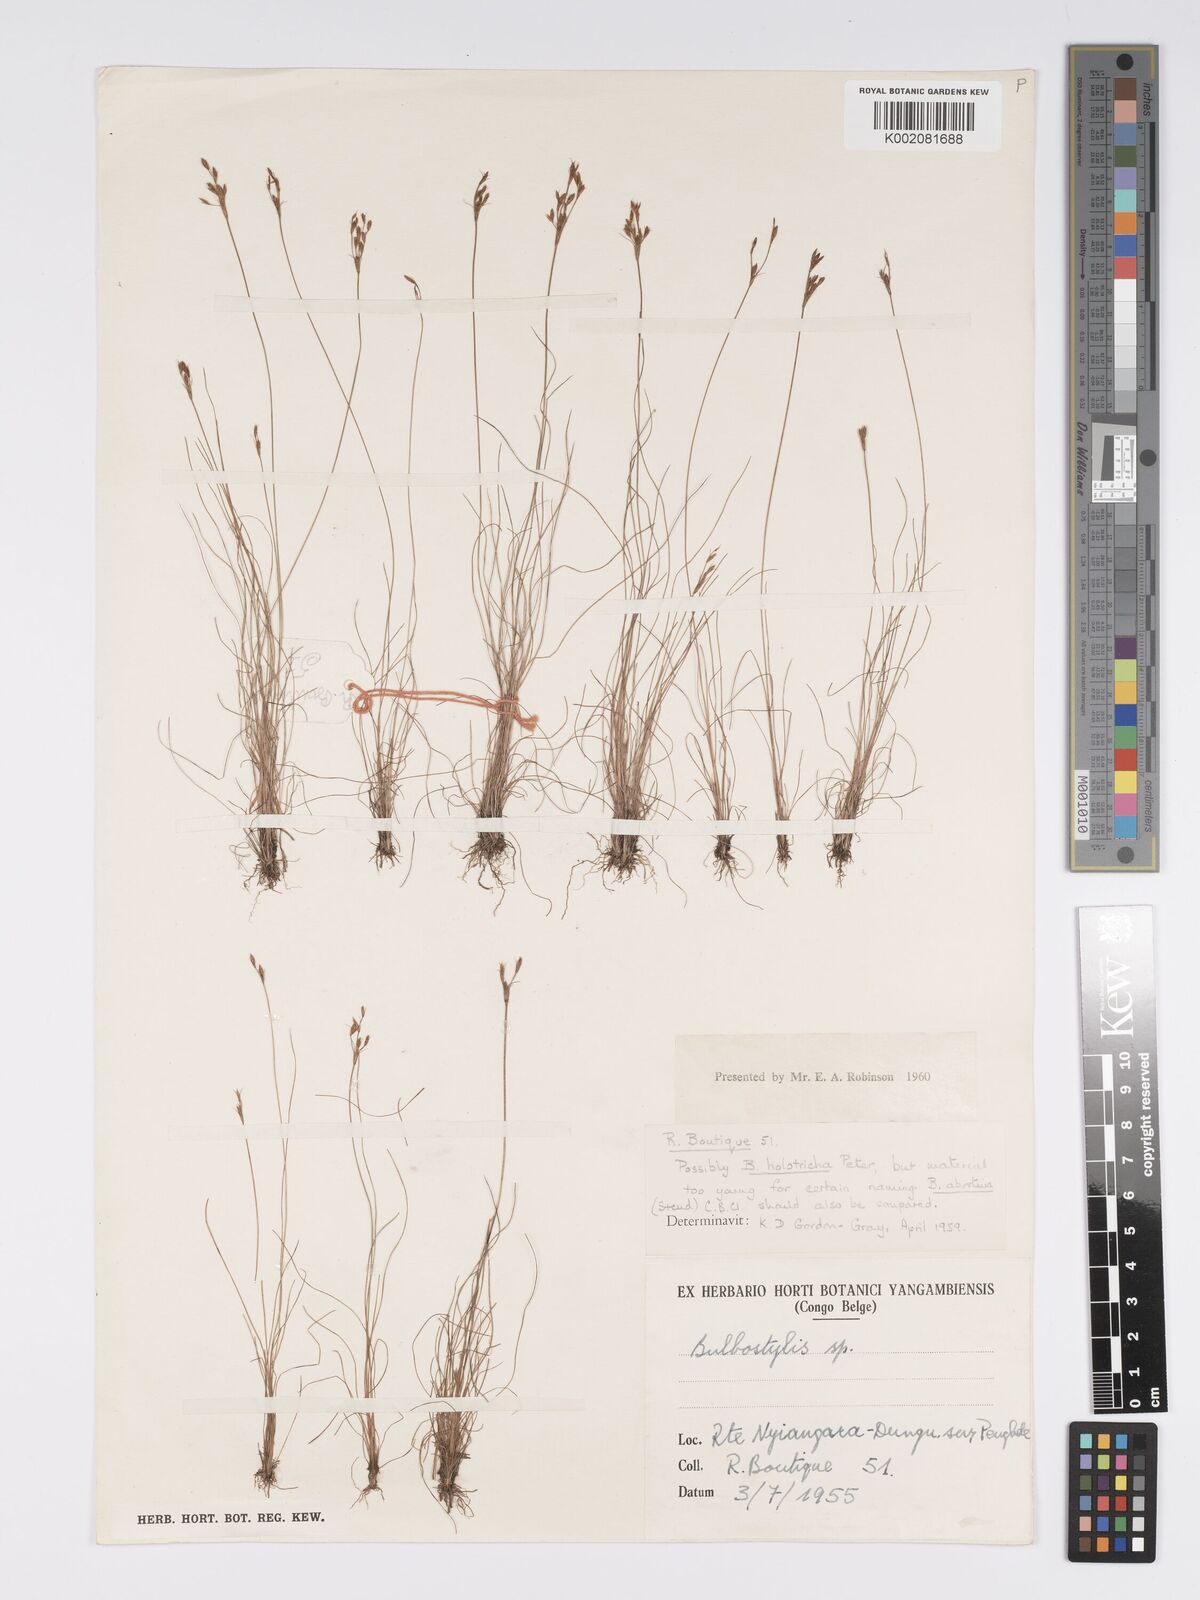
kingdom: Plantae
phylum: Tracheophyta
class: Liliopsida
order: Poales
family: Cyperaceae
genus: Bulbostylis
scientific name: Bulbostylis abortiva
